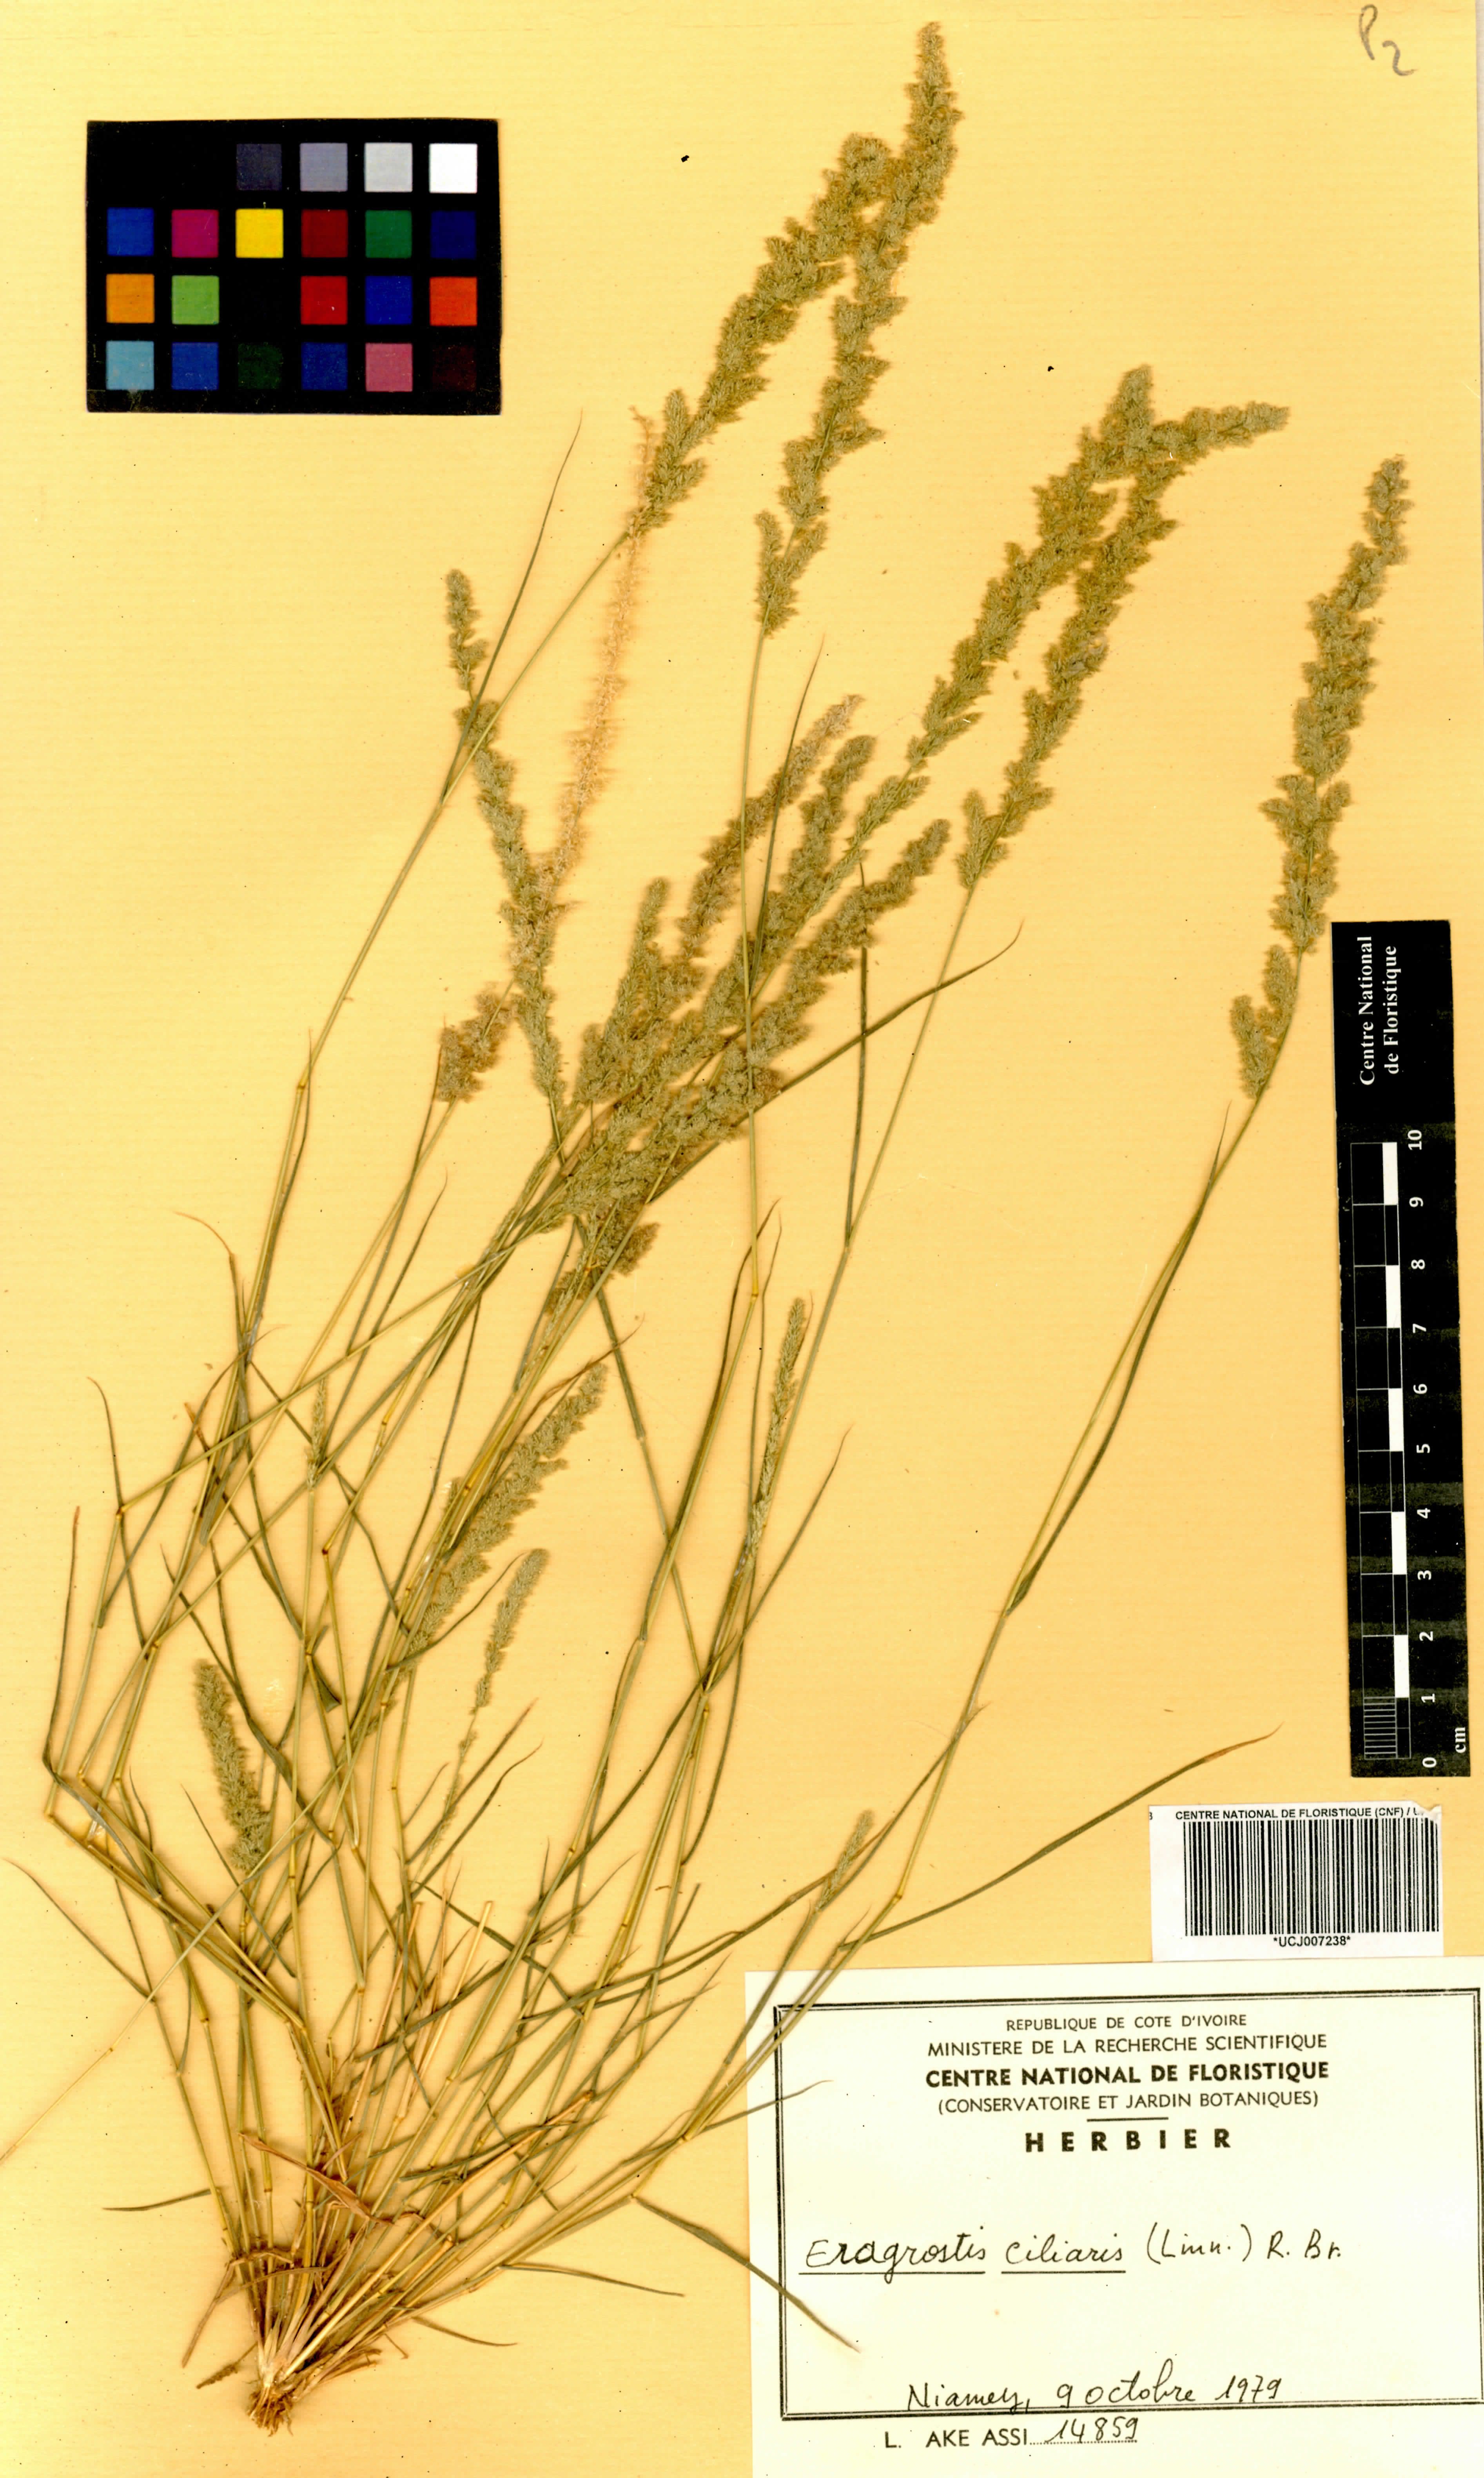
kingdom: Plantae
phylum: Tracheophyta
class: Liliopsida
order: Poales
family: Poaceae
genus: Eragrostis
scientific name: Eragrostis ciliaris
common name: Gophertail lovegrass
